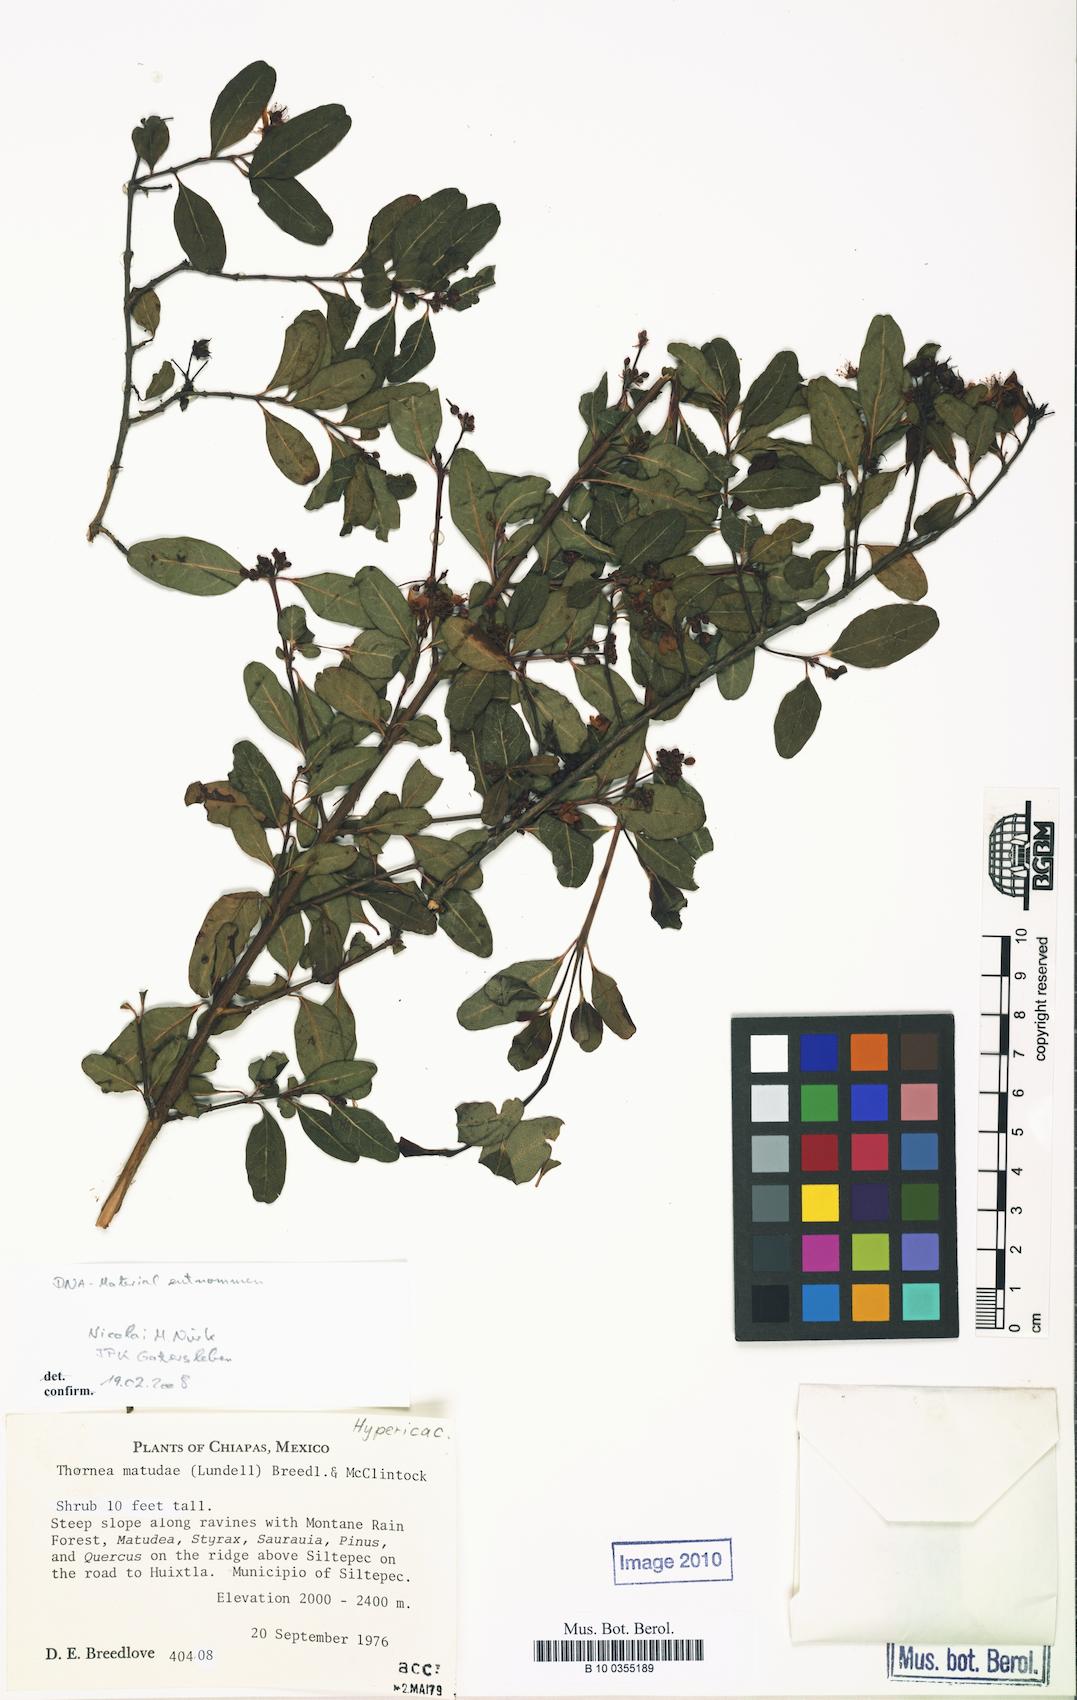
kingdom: Plantae
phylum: Tracheophyta
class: Magnoliopsida
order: Malpighiales
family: Hypericaceae
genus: Hypericum
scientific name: Hypericum matudae
